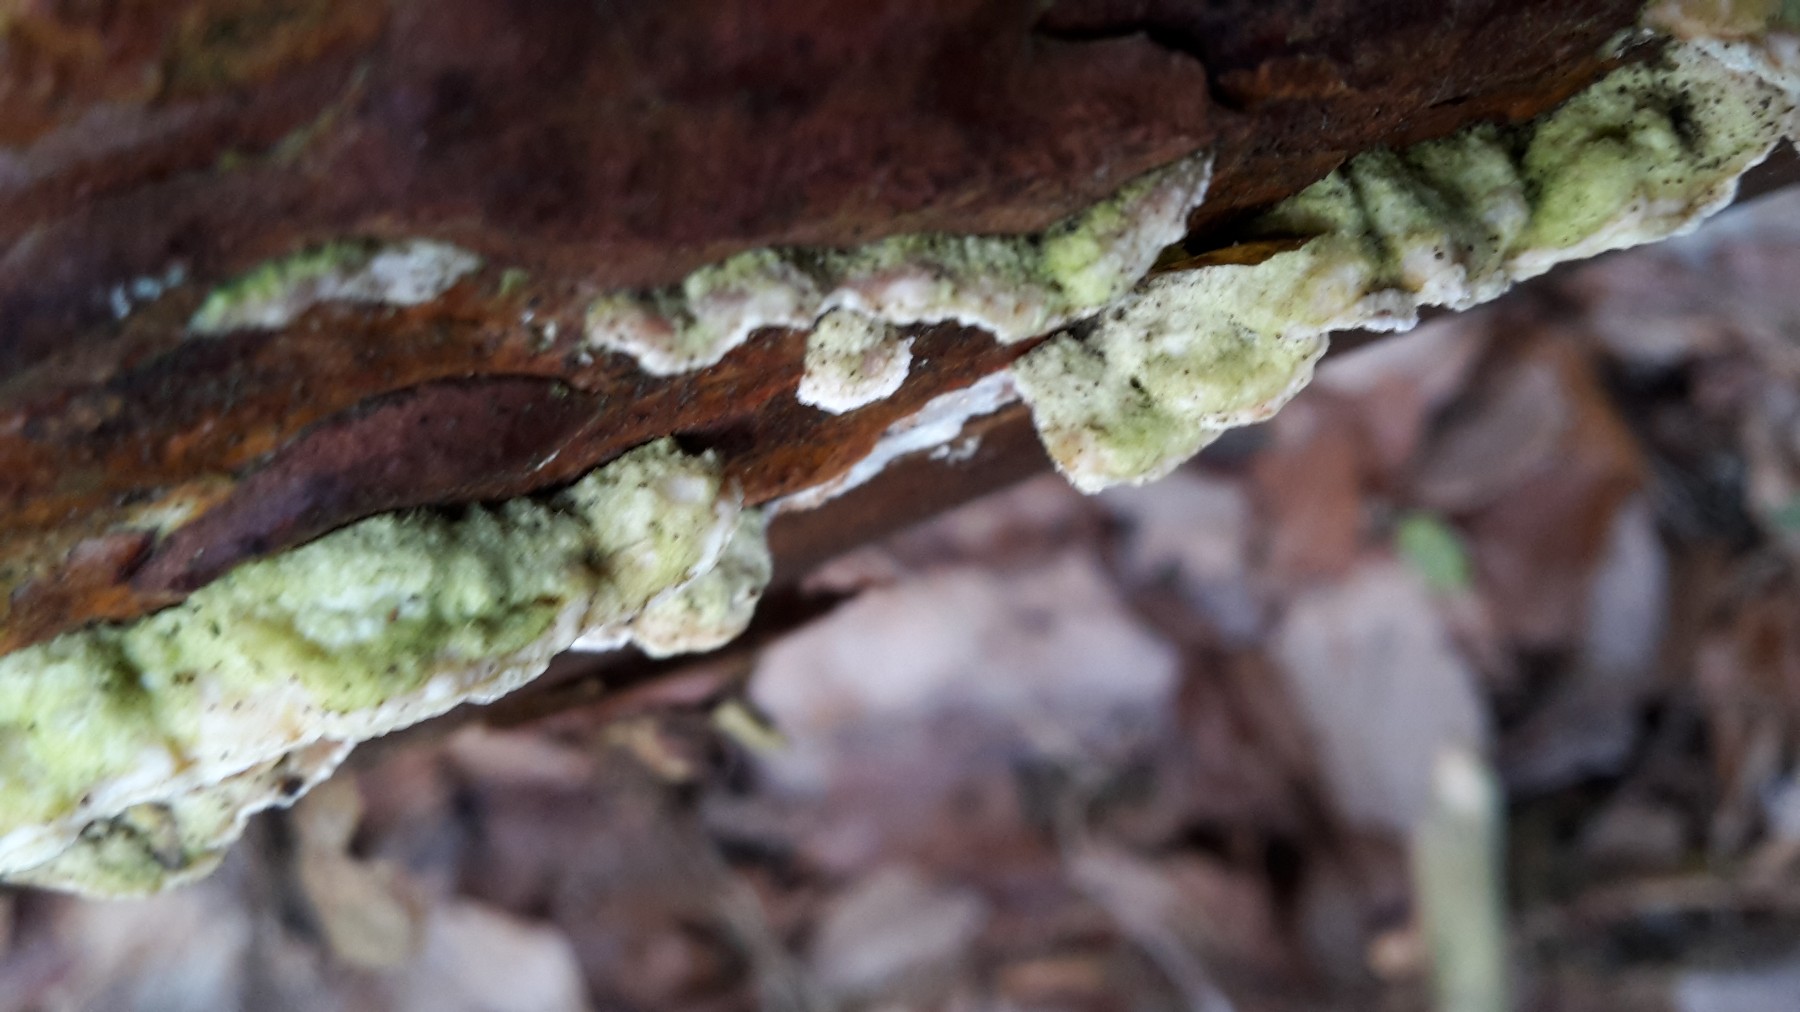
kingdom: Fungi
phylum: Basidiomycota
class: Agaricomycetes
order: Polyporales
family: Incrustoporiaceae
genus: Skeletocutis
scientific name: Skeletocutis amorpha
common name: orange krystalporesvamp
